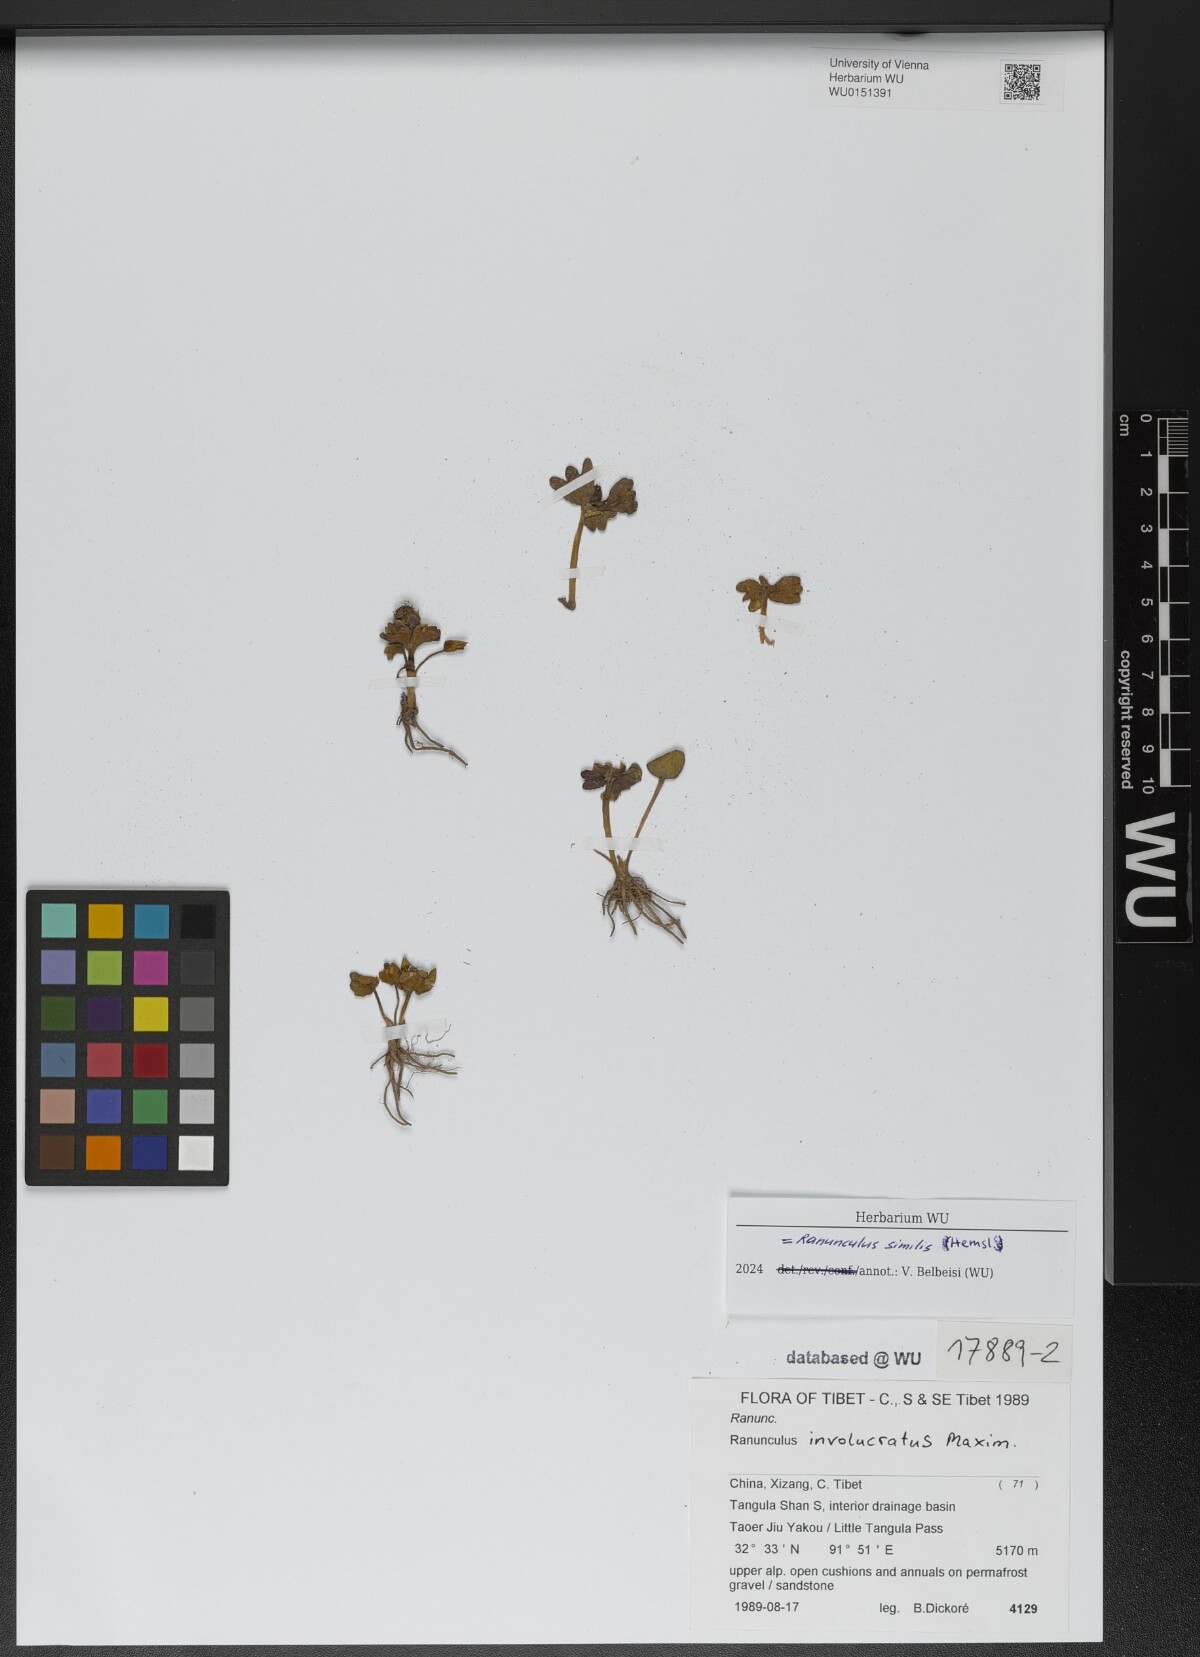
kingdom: Plantae
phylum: Tracheophyta
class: Magnoliopsida
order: Ranunculales
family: Ranunculaceae
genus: Ranunculus
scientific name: Ranunculus similis
